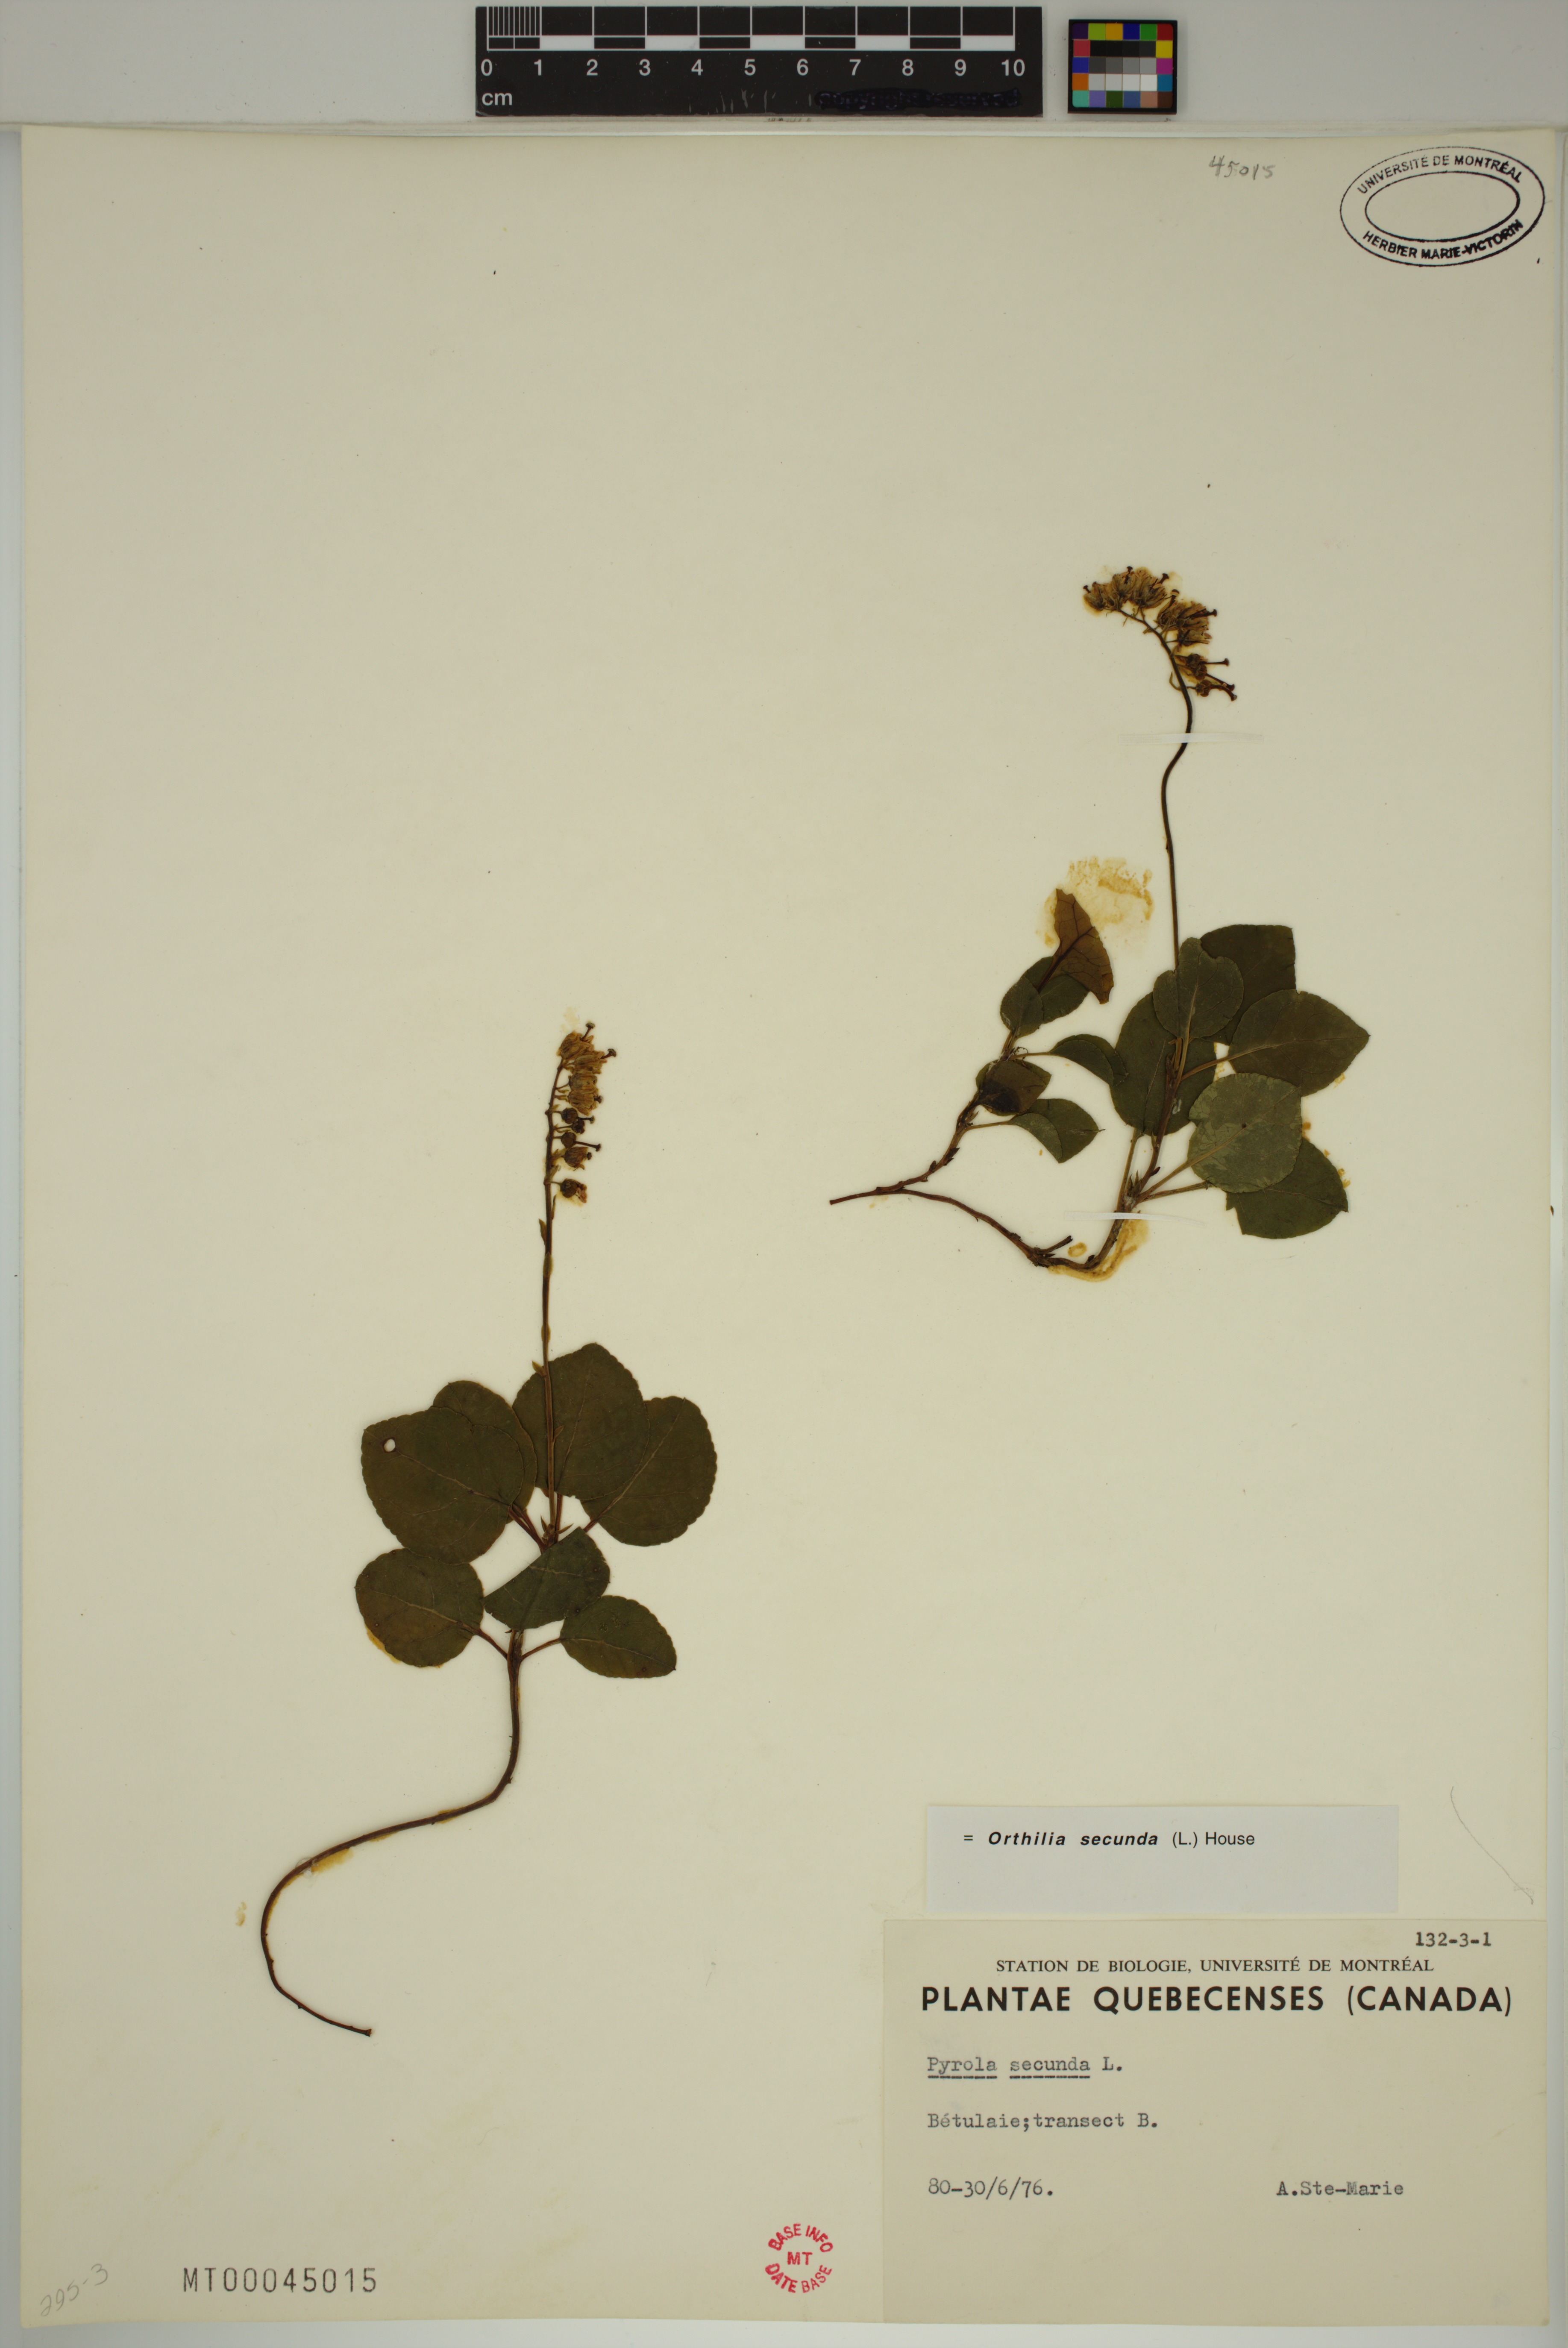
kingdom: Plantae
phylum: Tracheophyta
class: Magnoliopsida
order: Ericales
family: Ericaceae
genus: Orthilia
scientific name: Orthilia secunda
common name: One-sided orthilia
